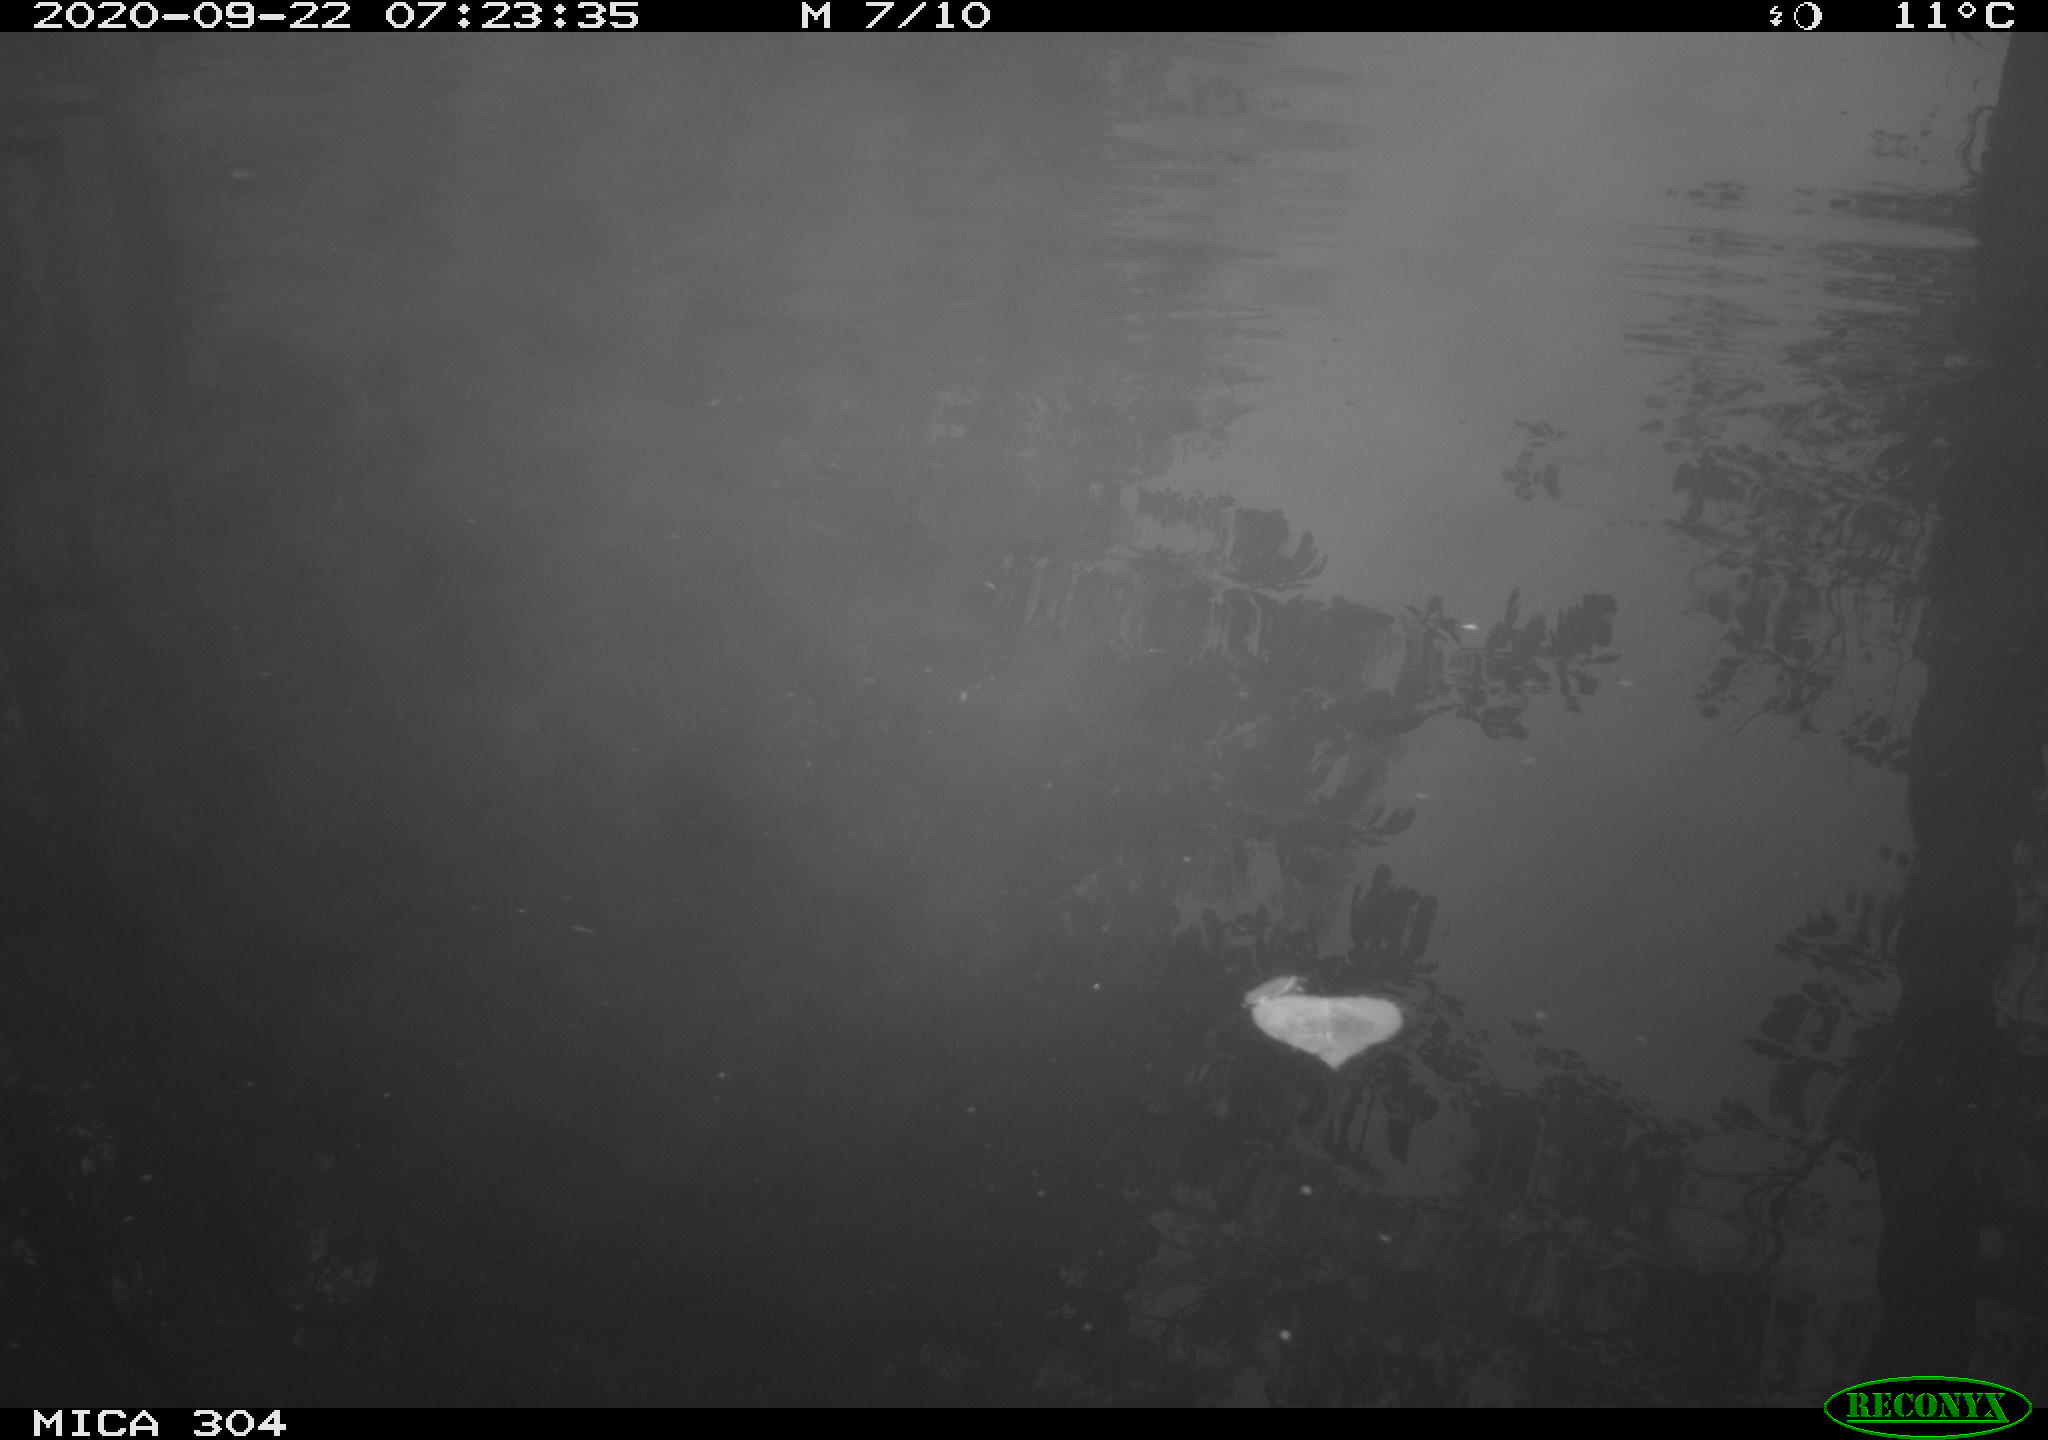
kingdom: Animalia
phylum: Chordata
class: Aves
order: Gruiformes
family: Rallidae
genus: Gallinula
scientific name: Gallinula chloropus
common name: Common moorhen
